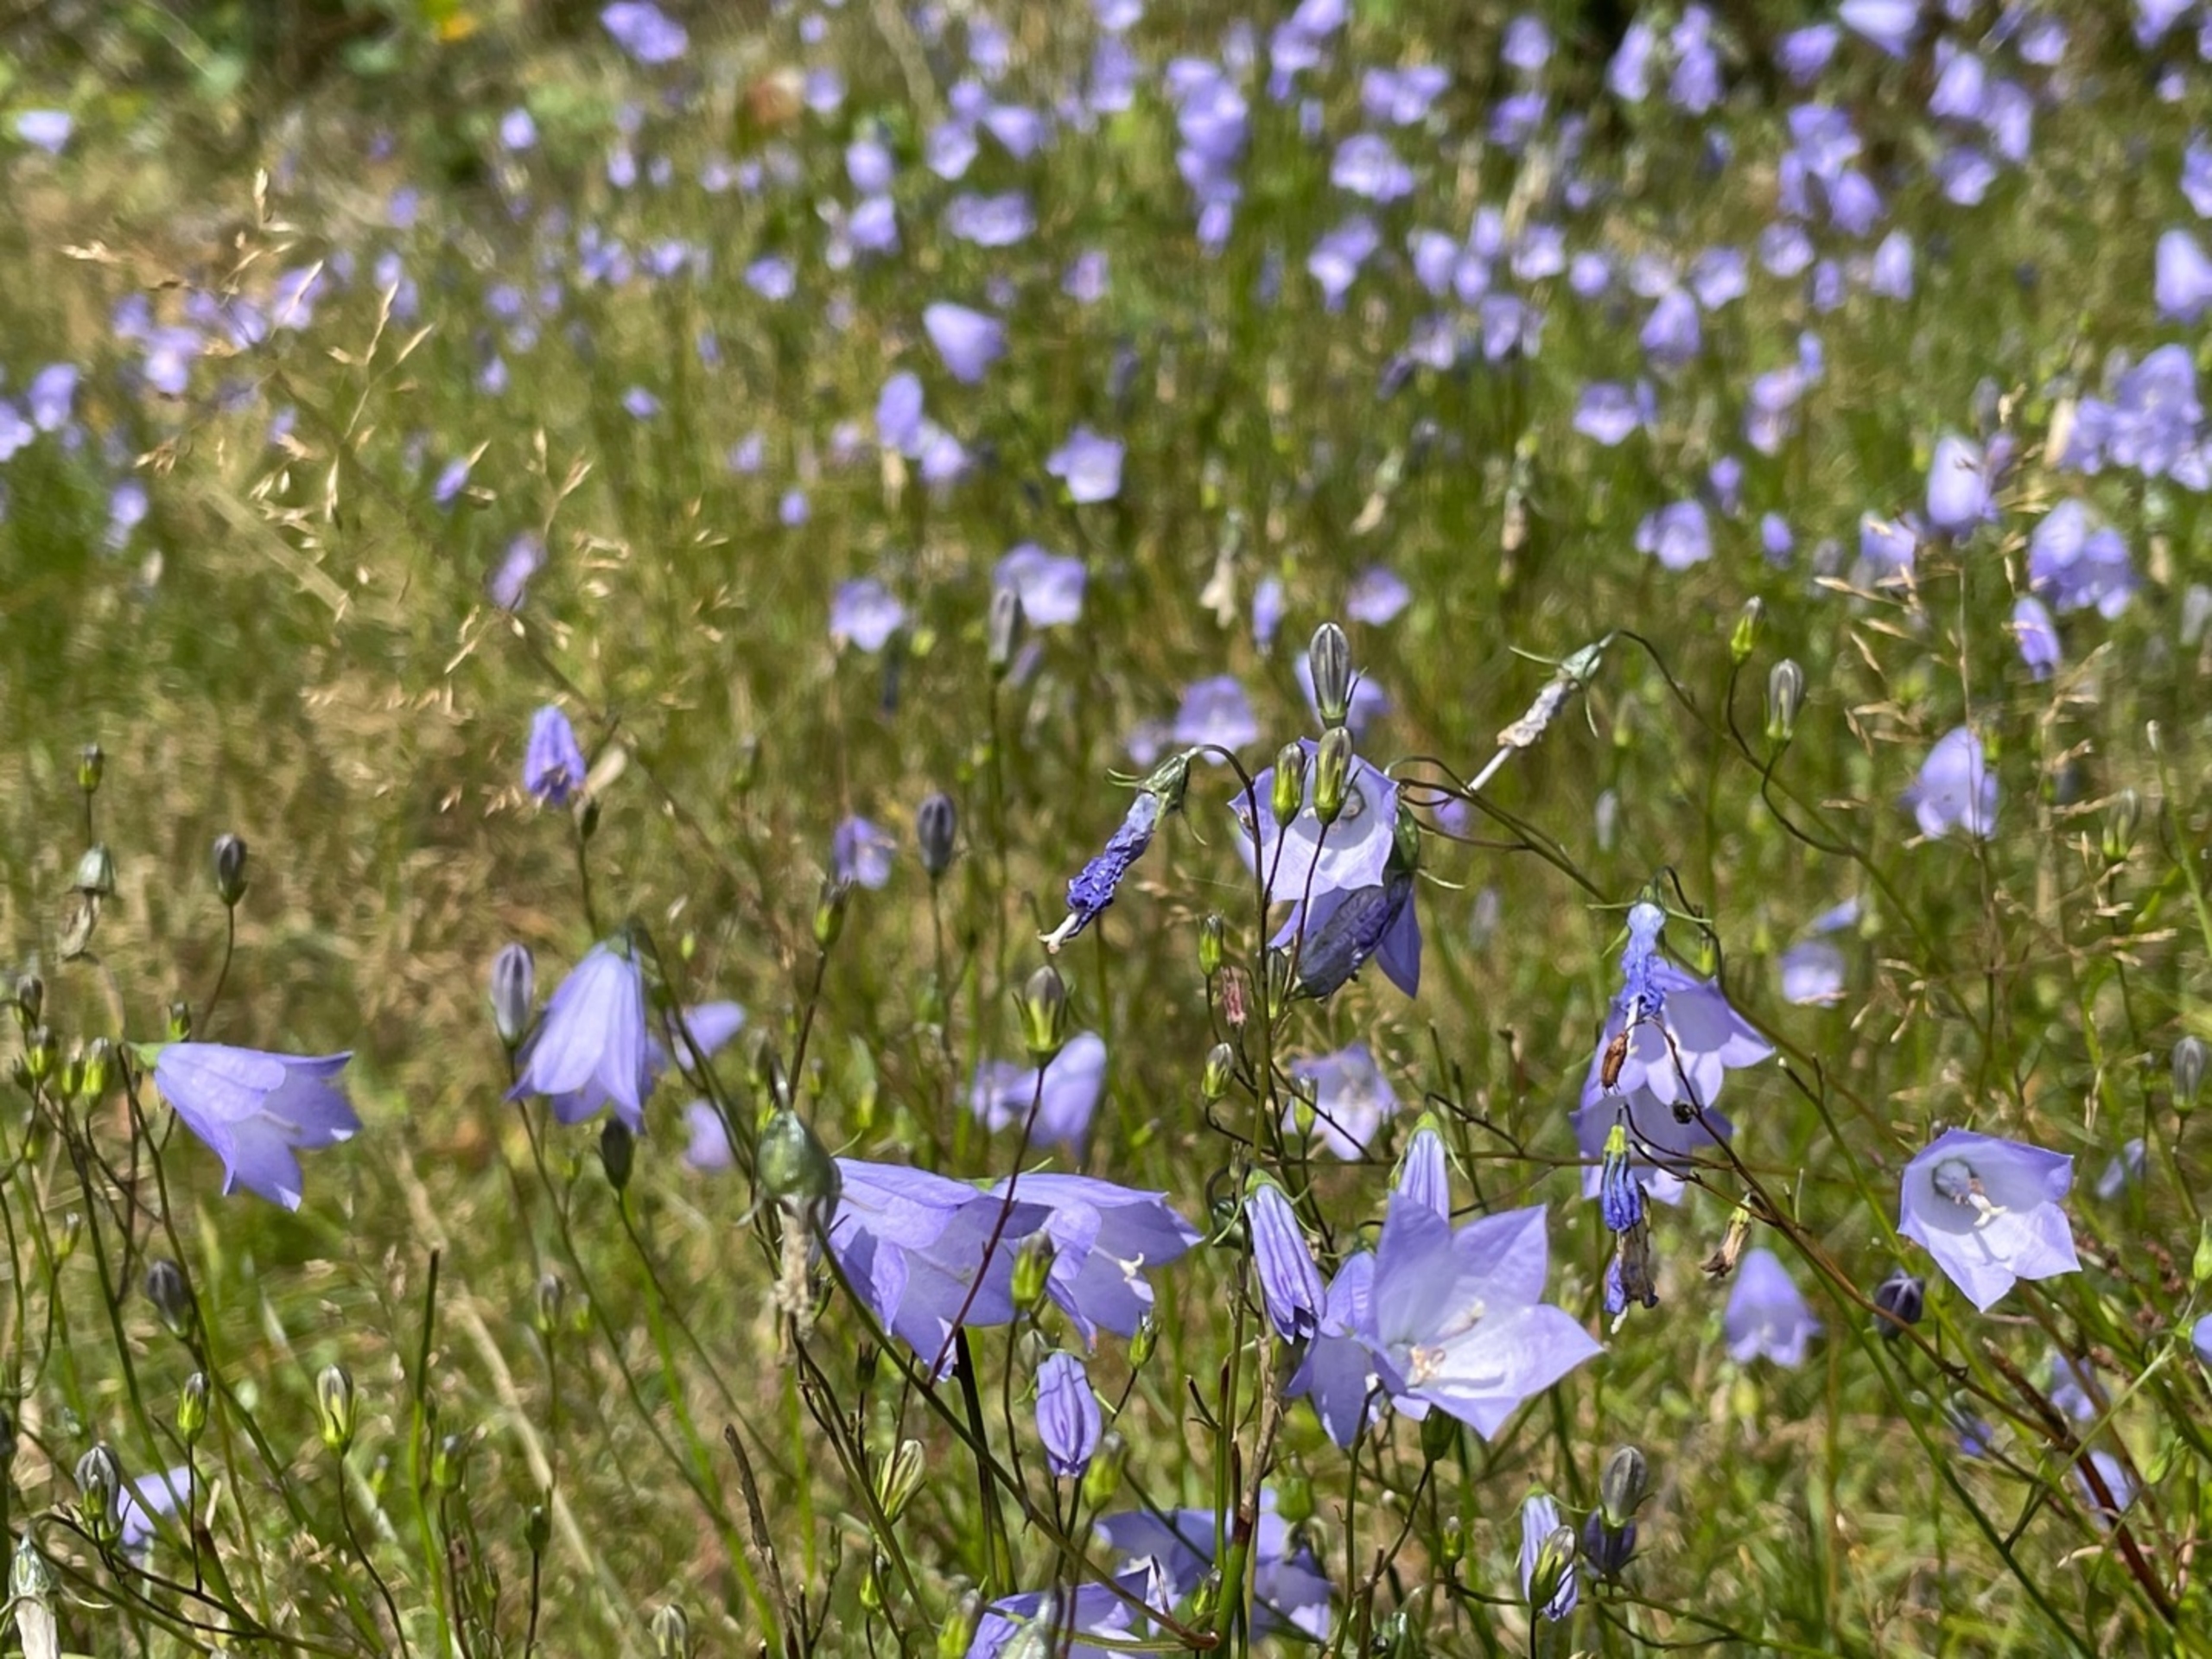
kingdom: Plantae
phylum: Tracheophyta
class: Magnoliopsida
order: Asterales
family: Campanulaceae
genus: Campanula
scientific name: Campanula rotundifolia
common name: Liden klokke
